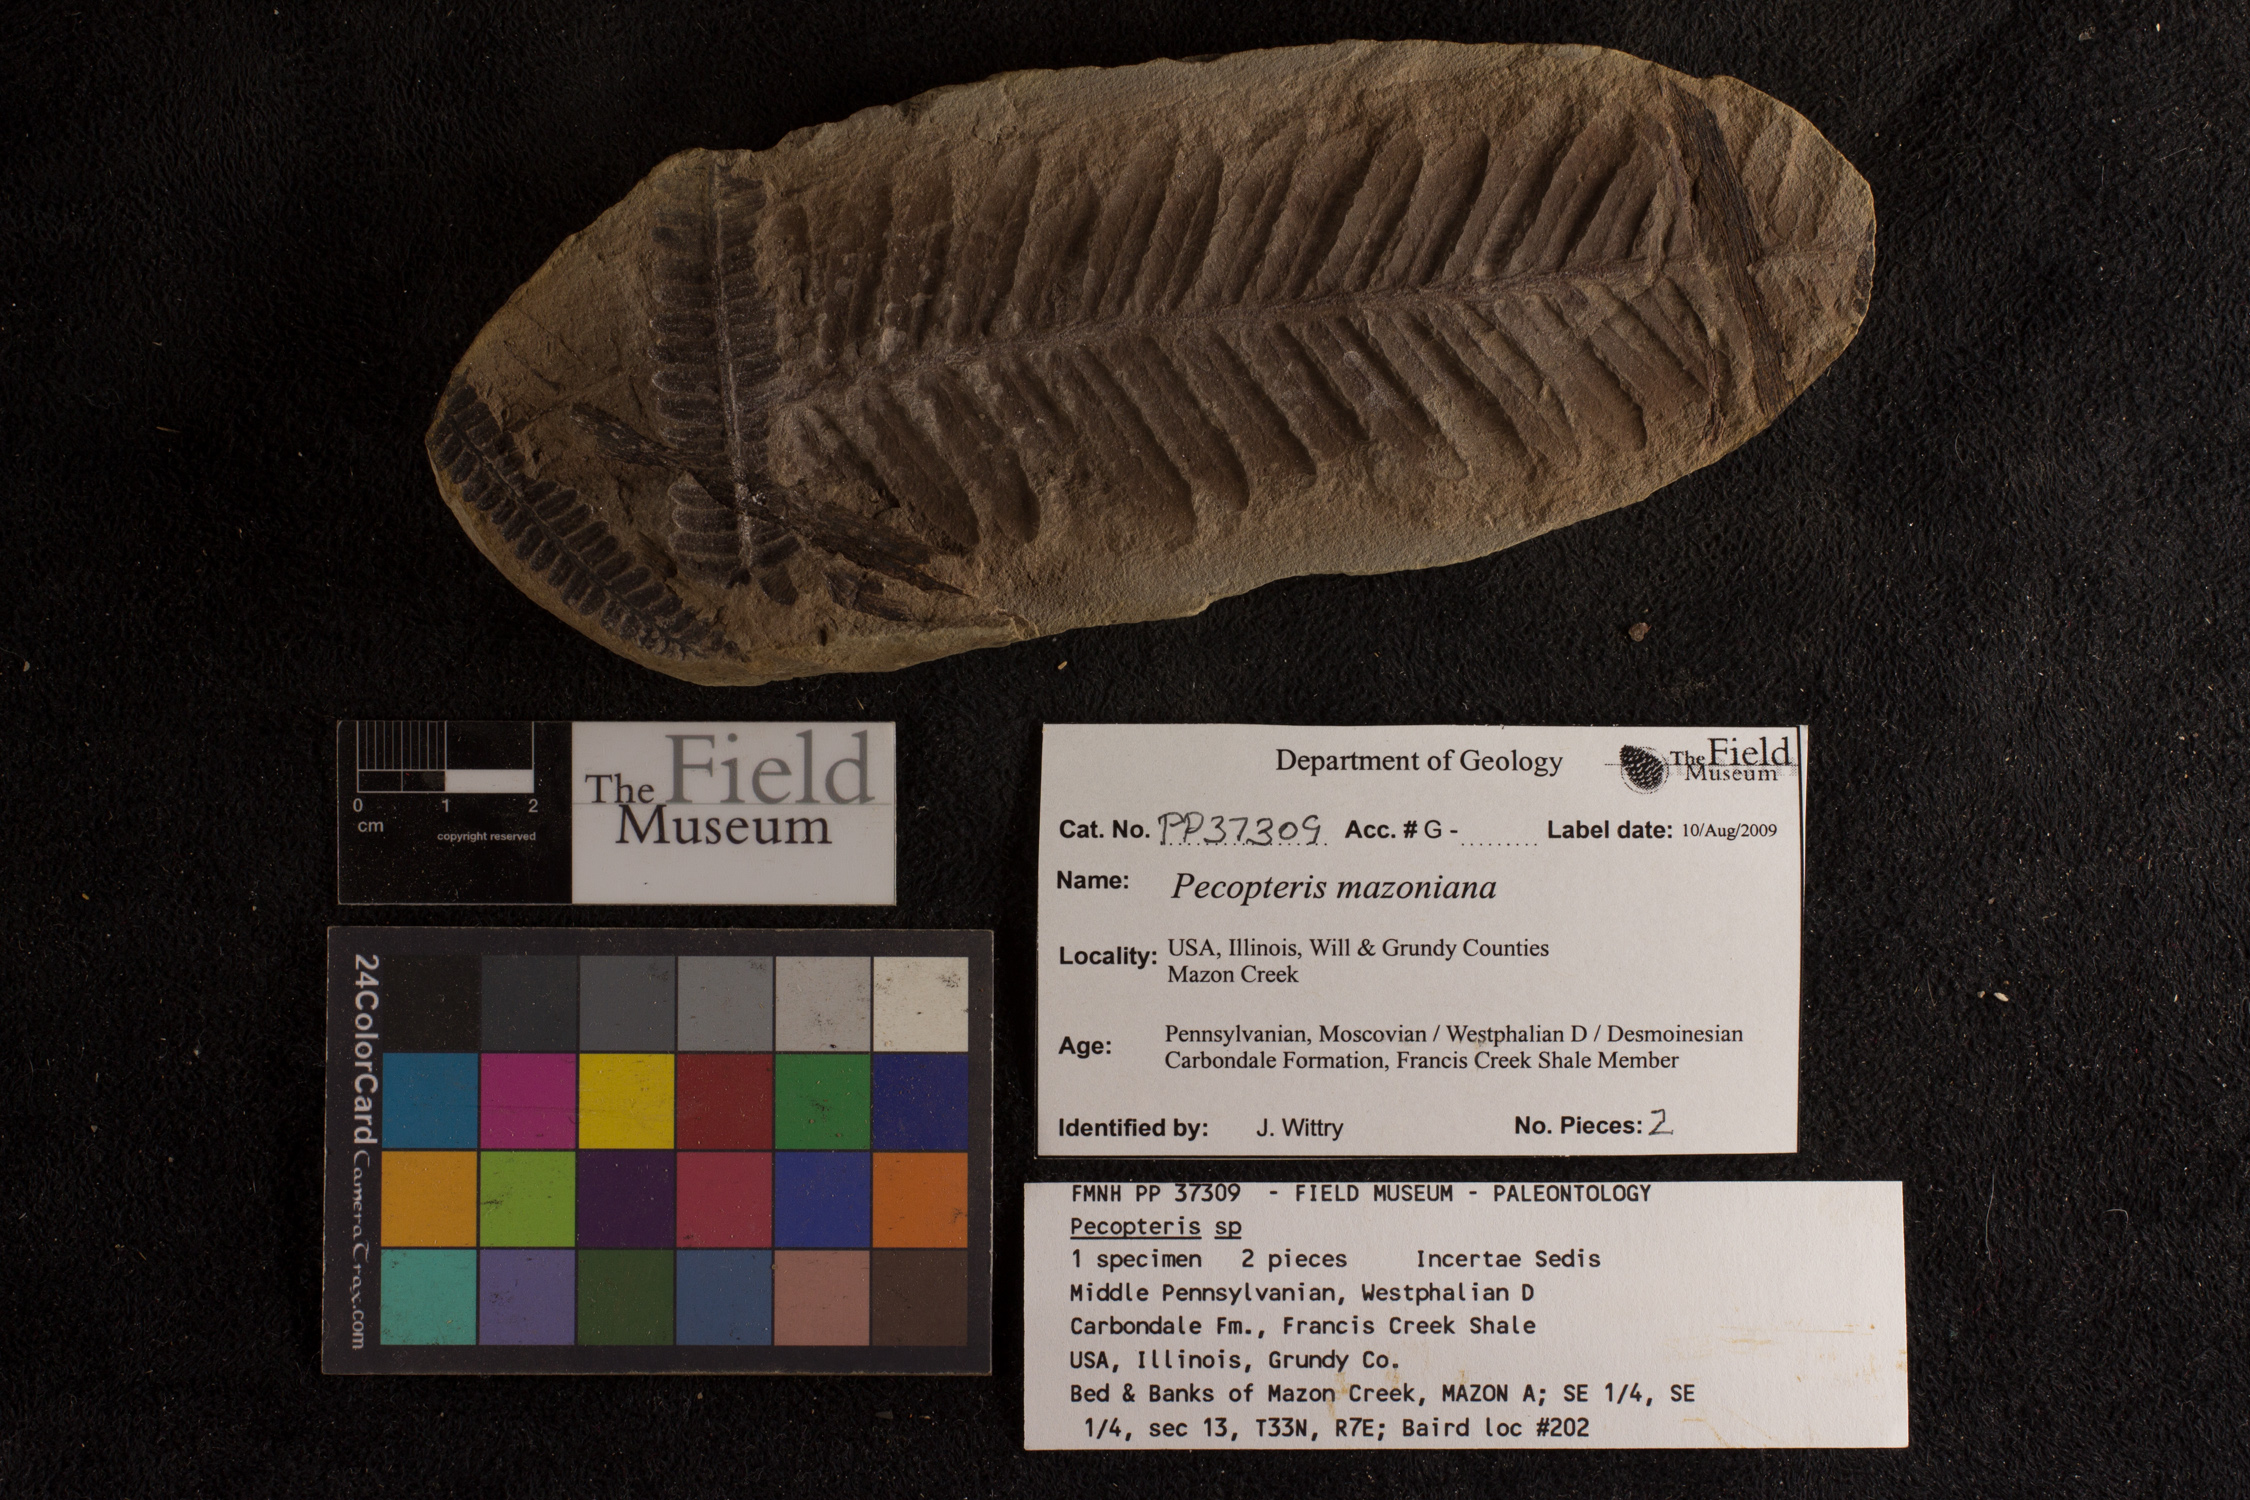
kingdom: Plantae
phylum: Tracheophyta
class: Polypodiopsida
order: Marattiales
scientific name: Marattiales
